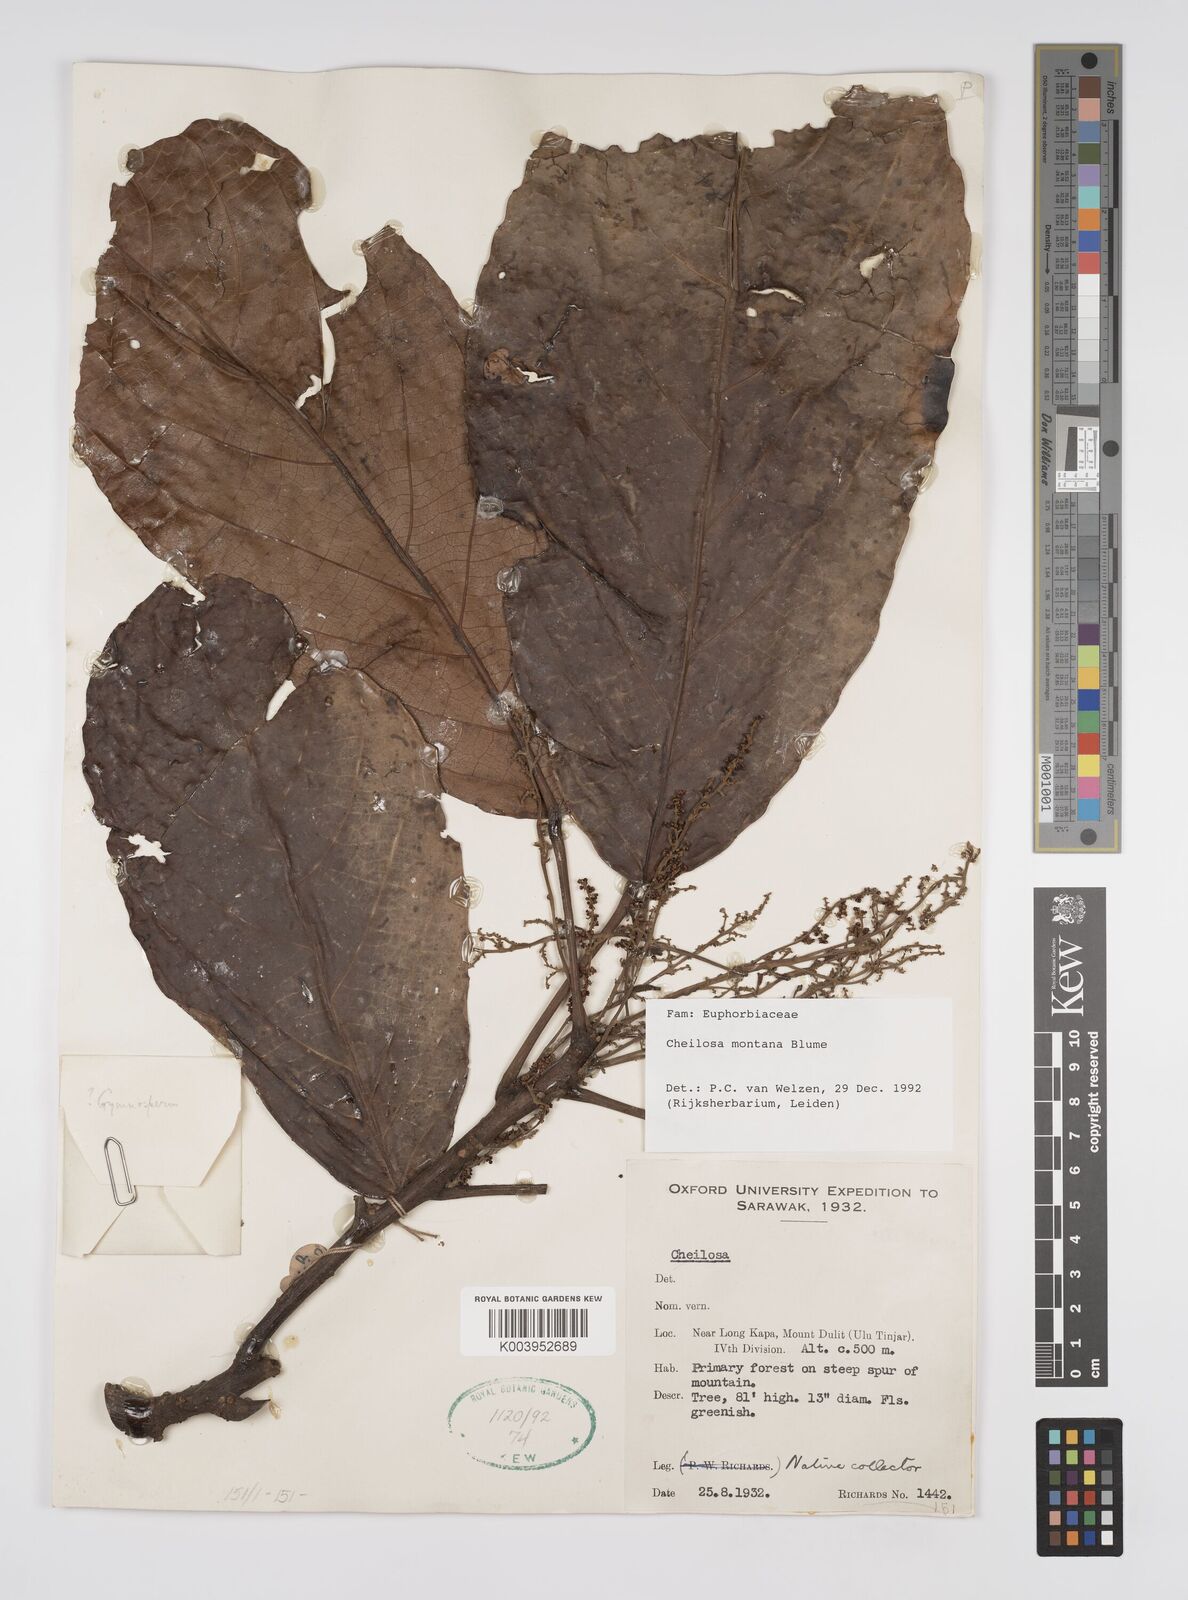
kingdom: Plantae
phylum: Tracheophyta
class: Magnoliopsida
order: Malpighiales
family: Euphorbiaceae
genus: Cheilosa
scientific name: Cheilosa montana
